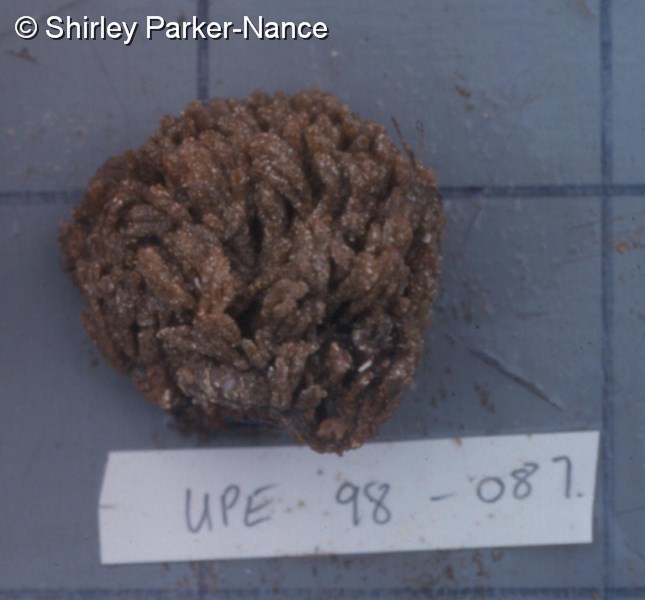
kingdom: Animalia
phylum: Chordata
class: Ascidiacea
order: Aplousobranchia
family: Euherdmaniidae
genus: Euherdmania
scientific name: Euherdmania divida
